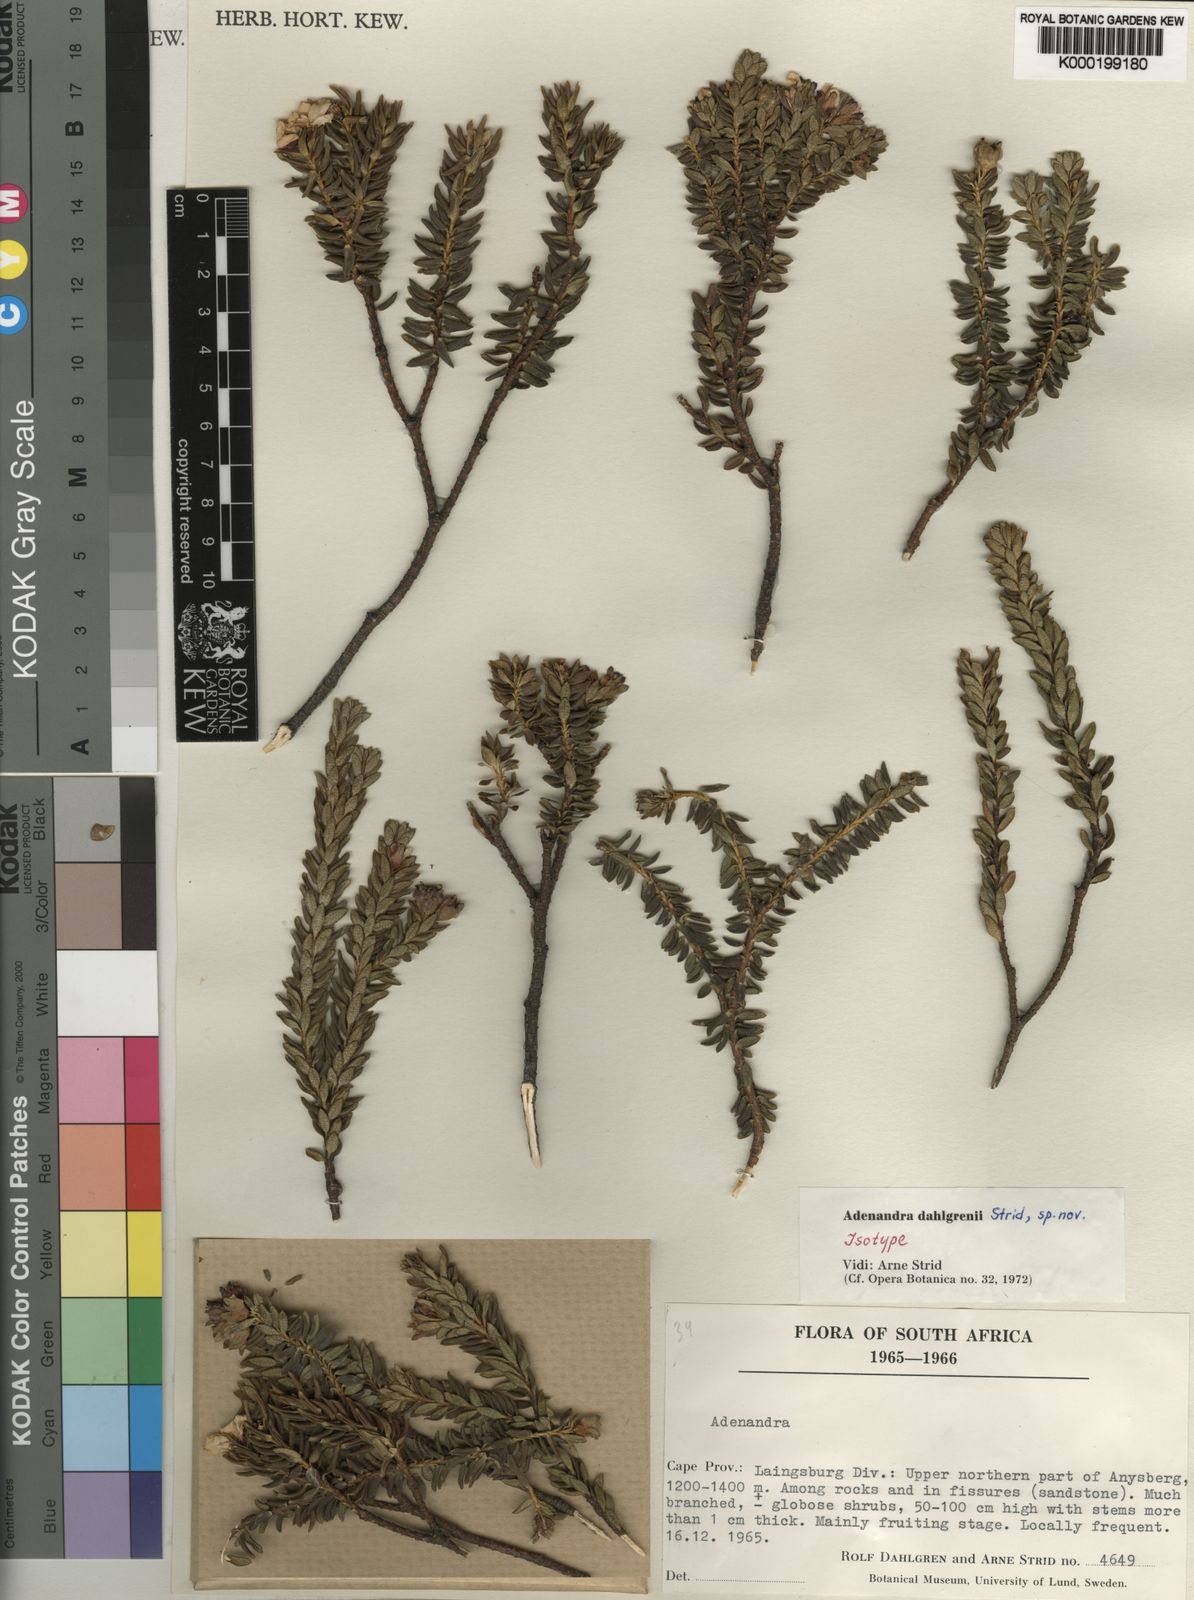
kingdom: Plantae
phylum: Tracheophyta
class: Magnoliopsida
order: Sapindales
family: Rutaceae
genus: Adenandra
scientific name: Adenandra dahlgrenii
